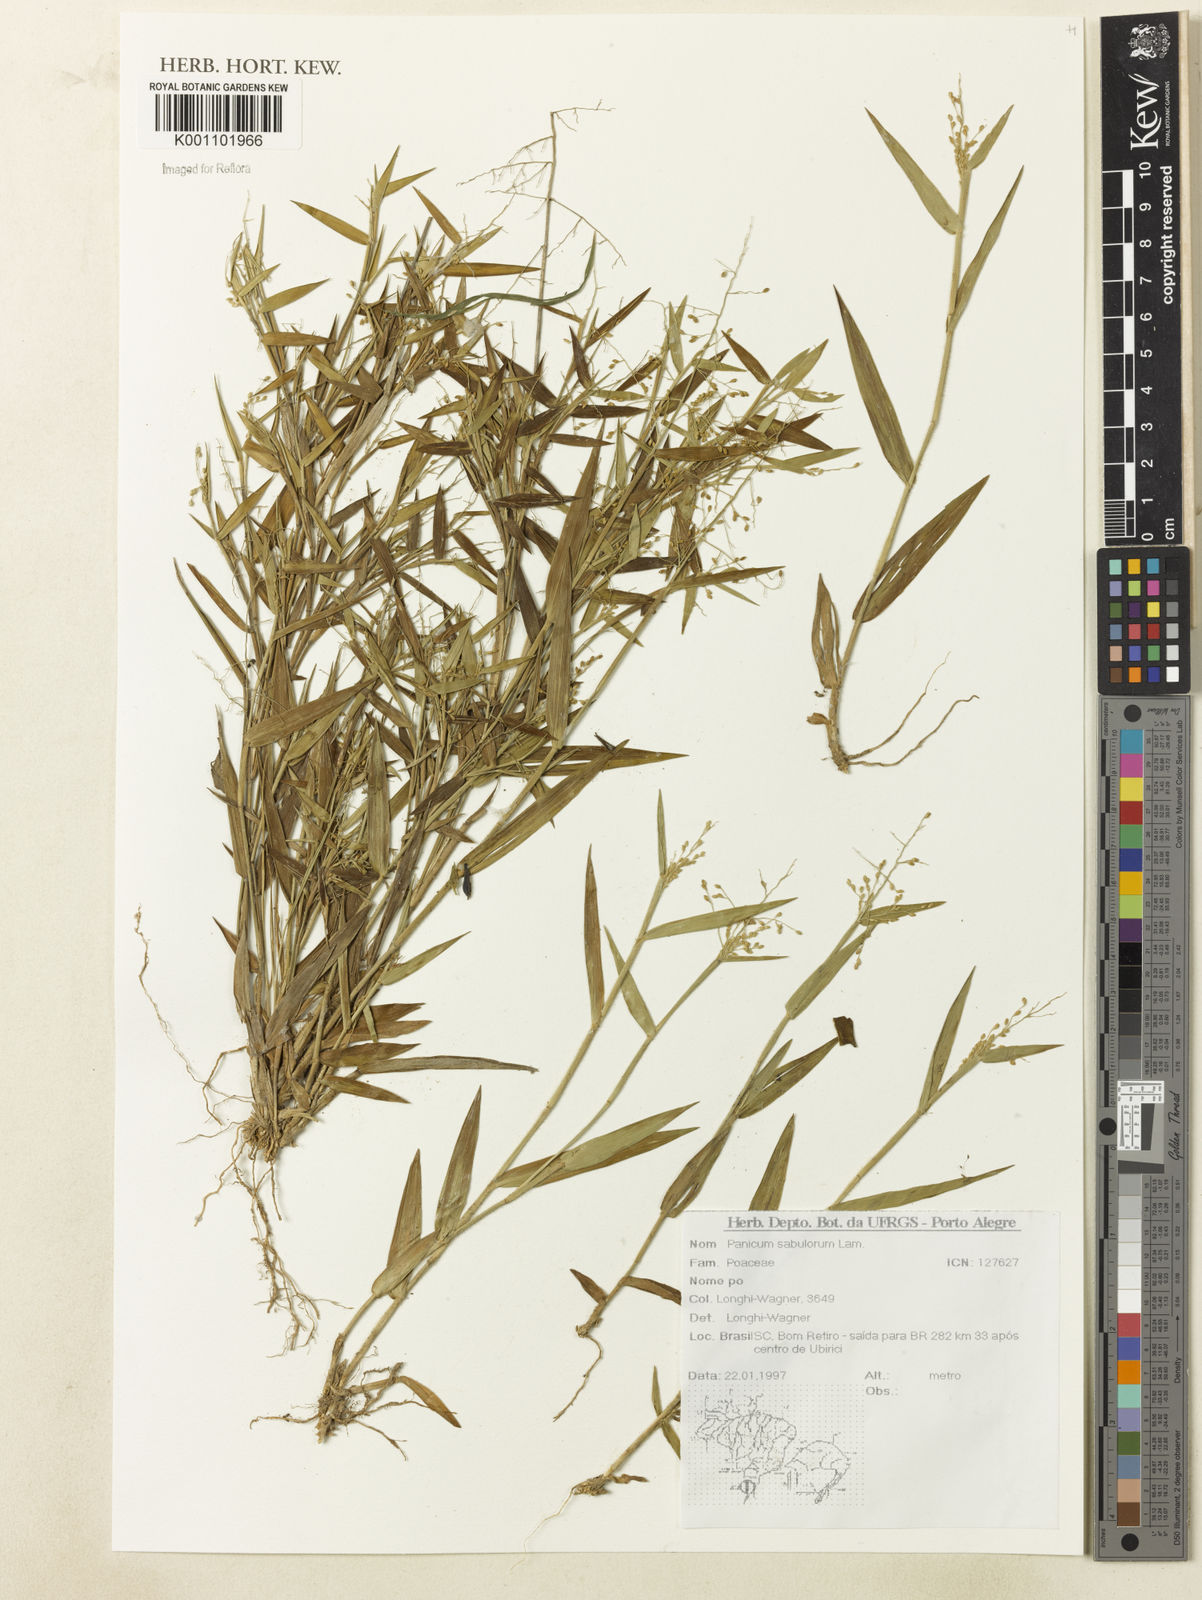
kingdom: Plantae
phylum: Tracheophyta
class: Liliopsida
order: Poales
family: Poaceae
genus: Dichanthelium
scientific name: Dichanthelium sabulorum
